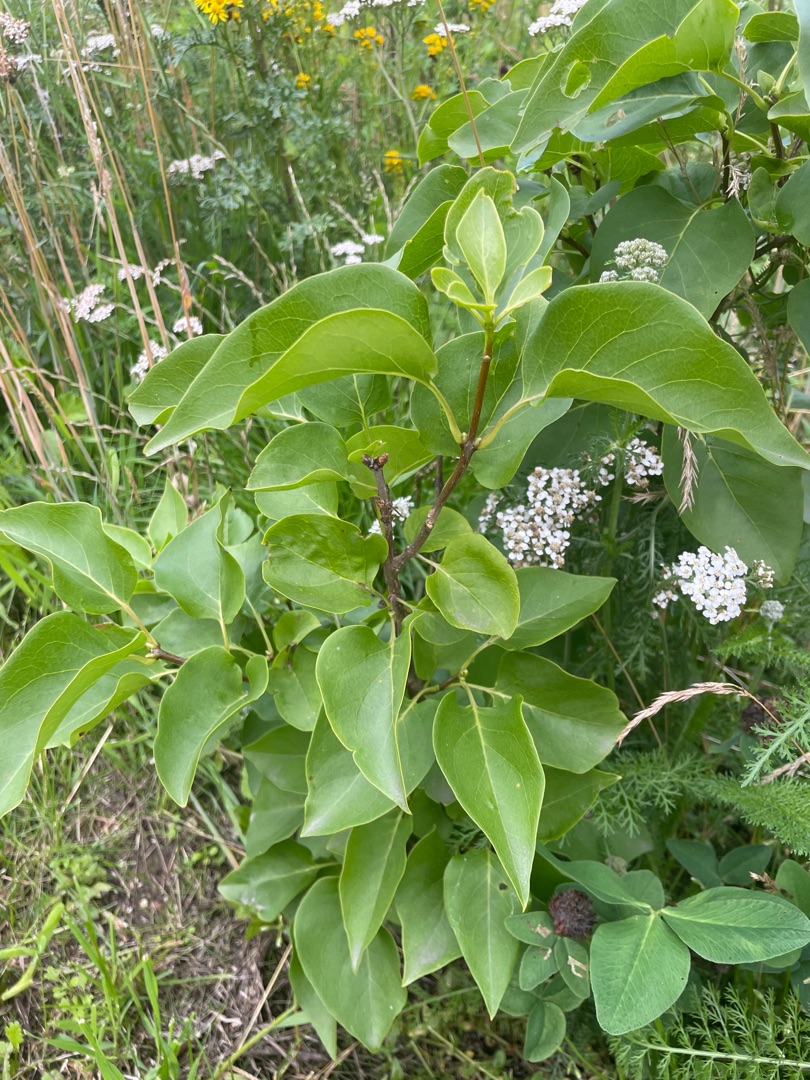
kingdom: Plantae
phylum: Tracheophyta
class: Magnoliopsida
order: Lamiales
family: Oleaceae
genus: Syringa
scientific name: Syringa vulgaris
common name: Syren
